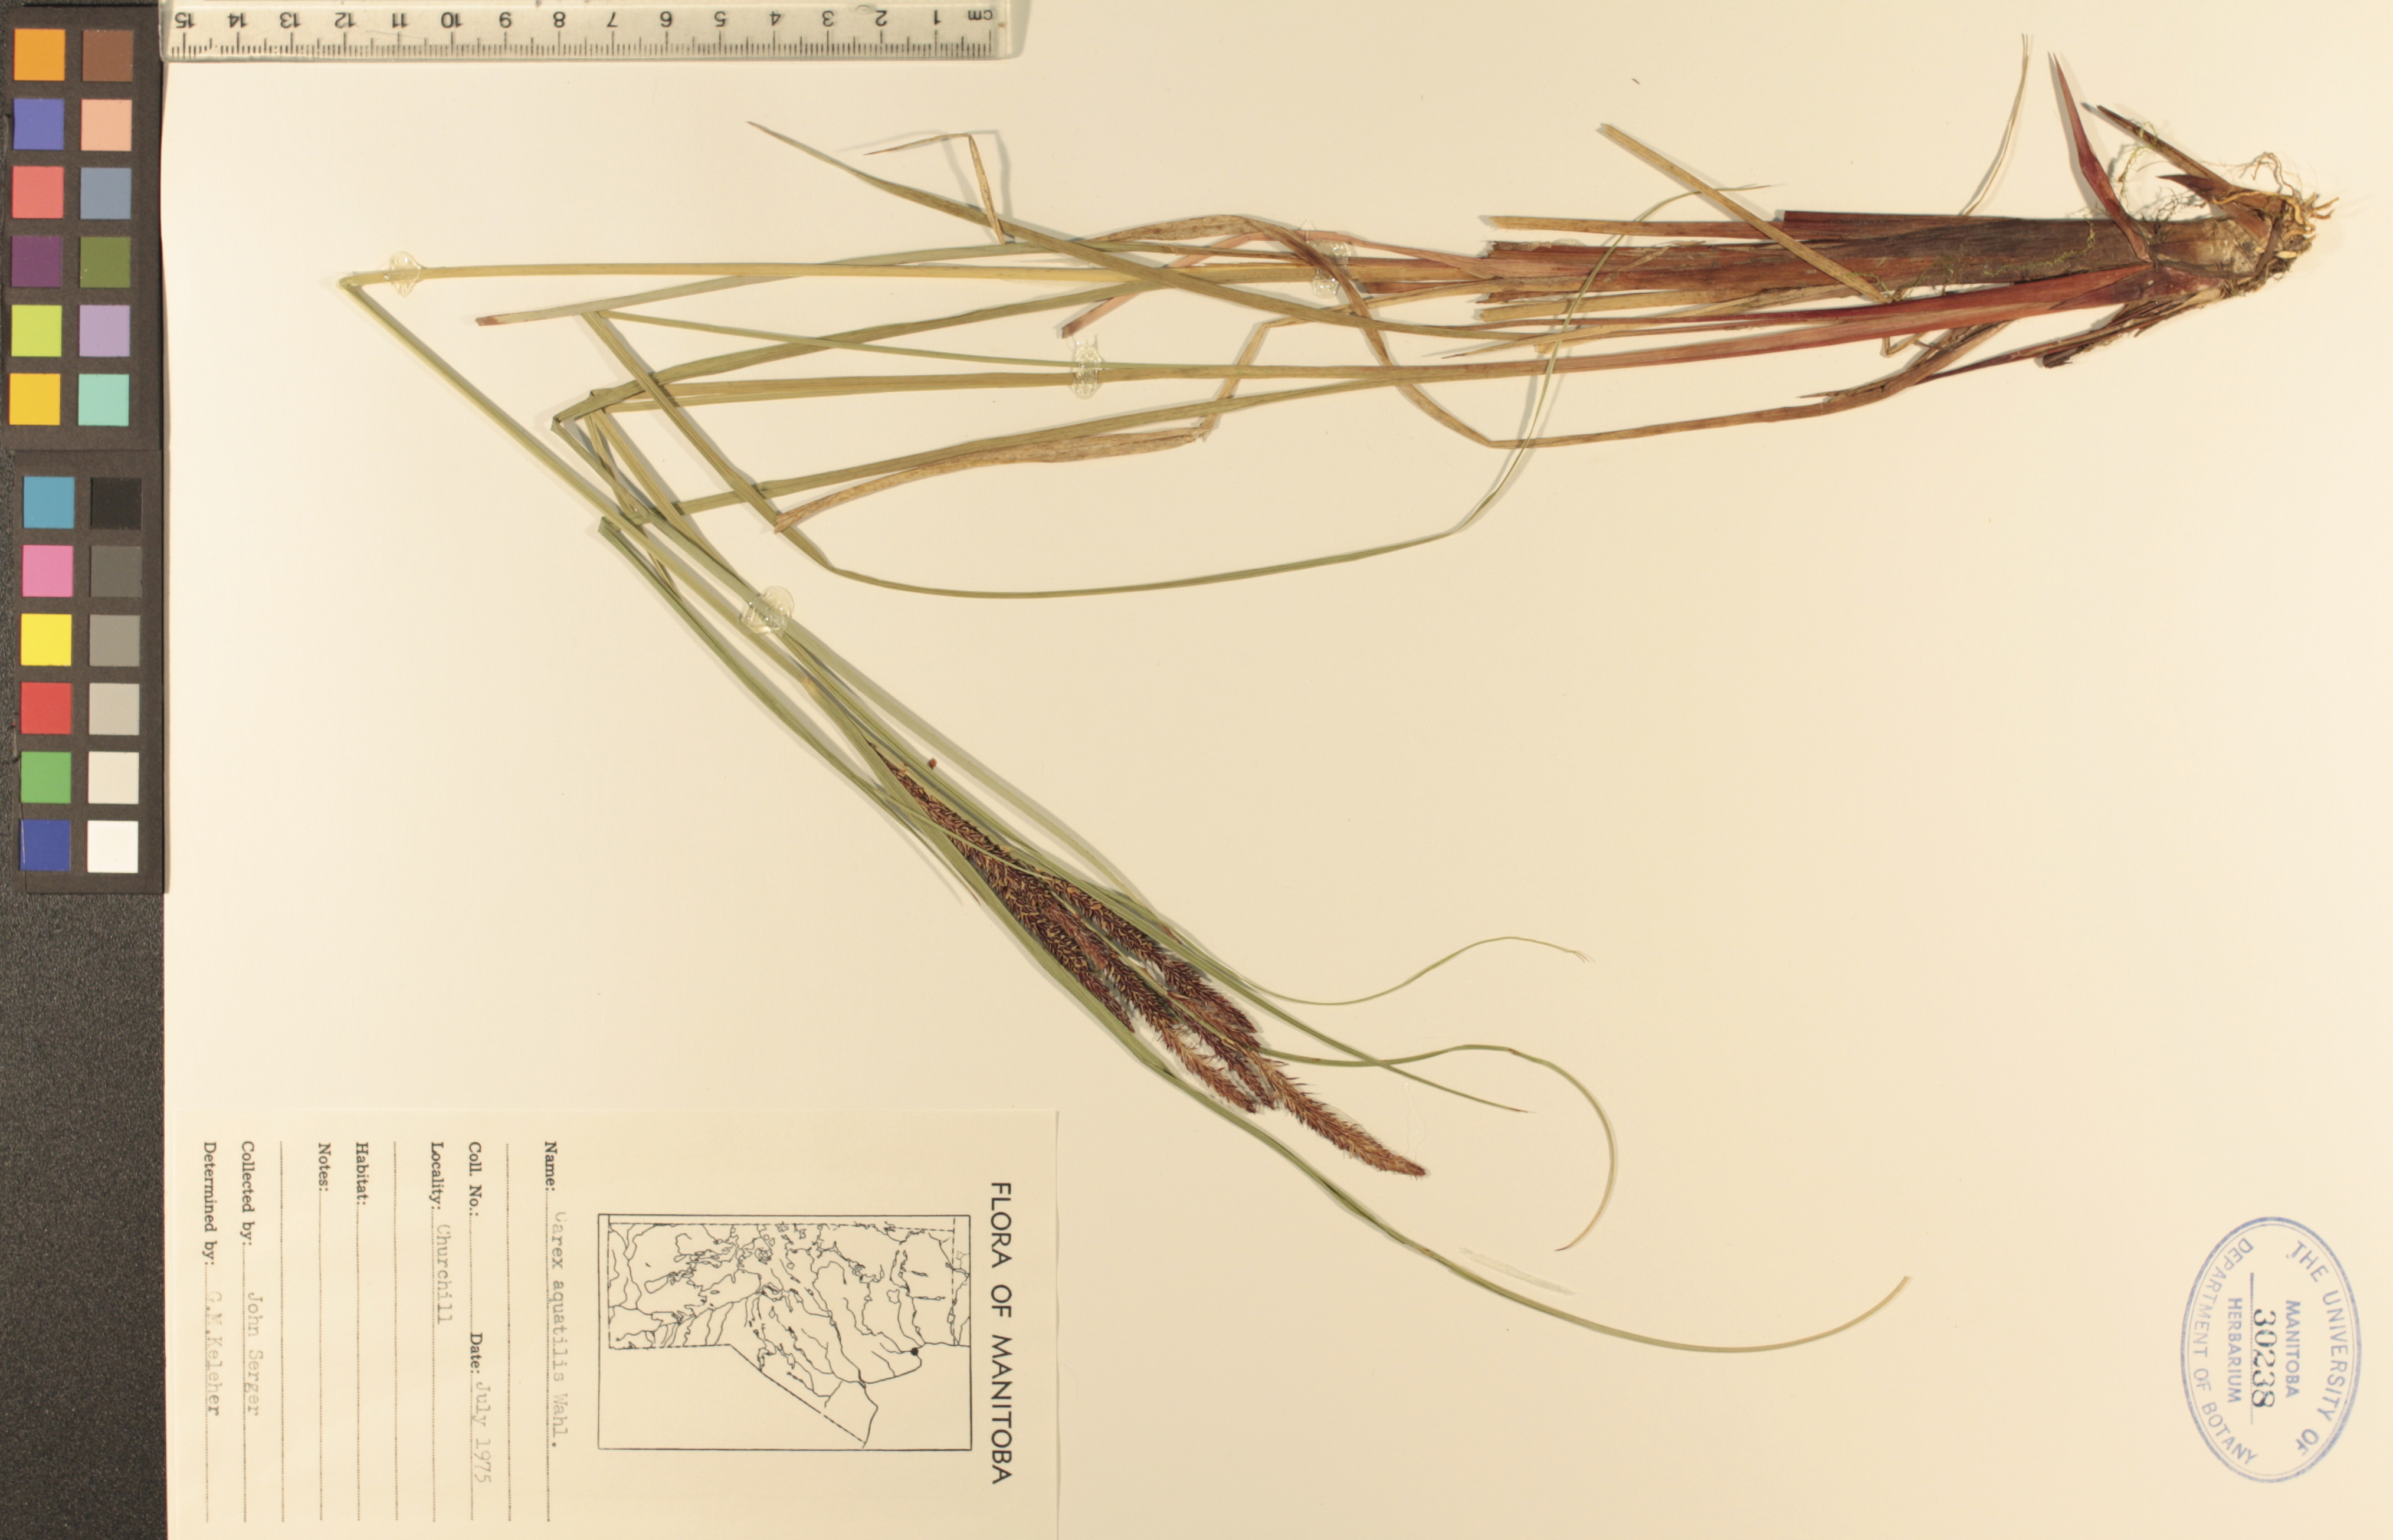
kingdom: Plantae
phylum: Tracheophyta
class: Liliopsida
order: Poales
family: Cyperaceae
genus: Carex
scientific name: Carex aquatilis
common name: Water sedge
